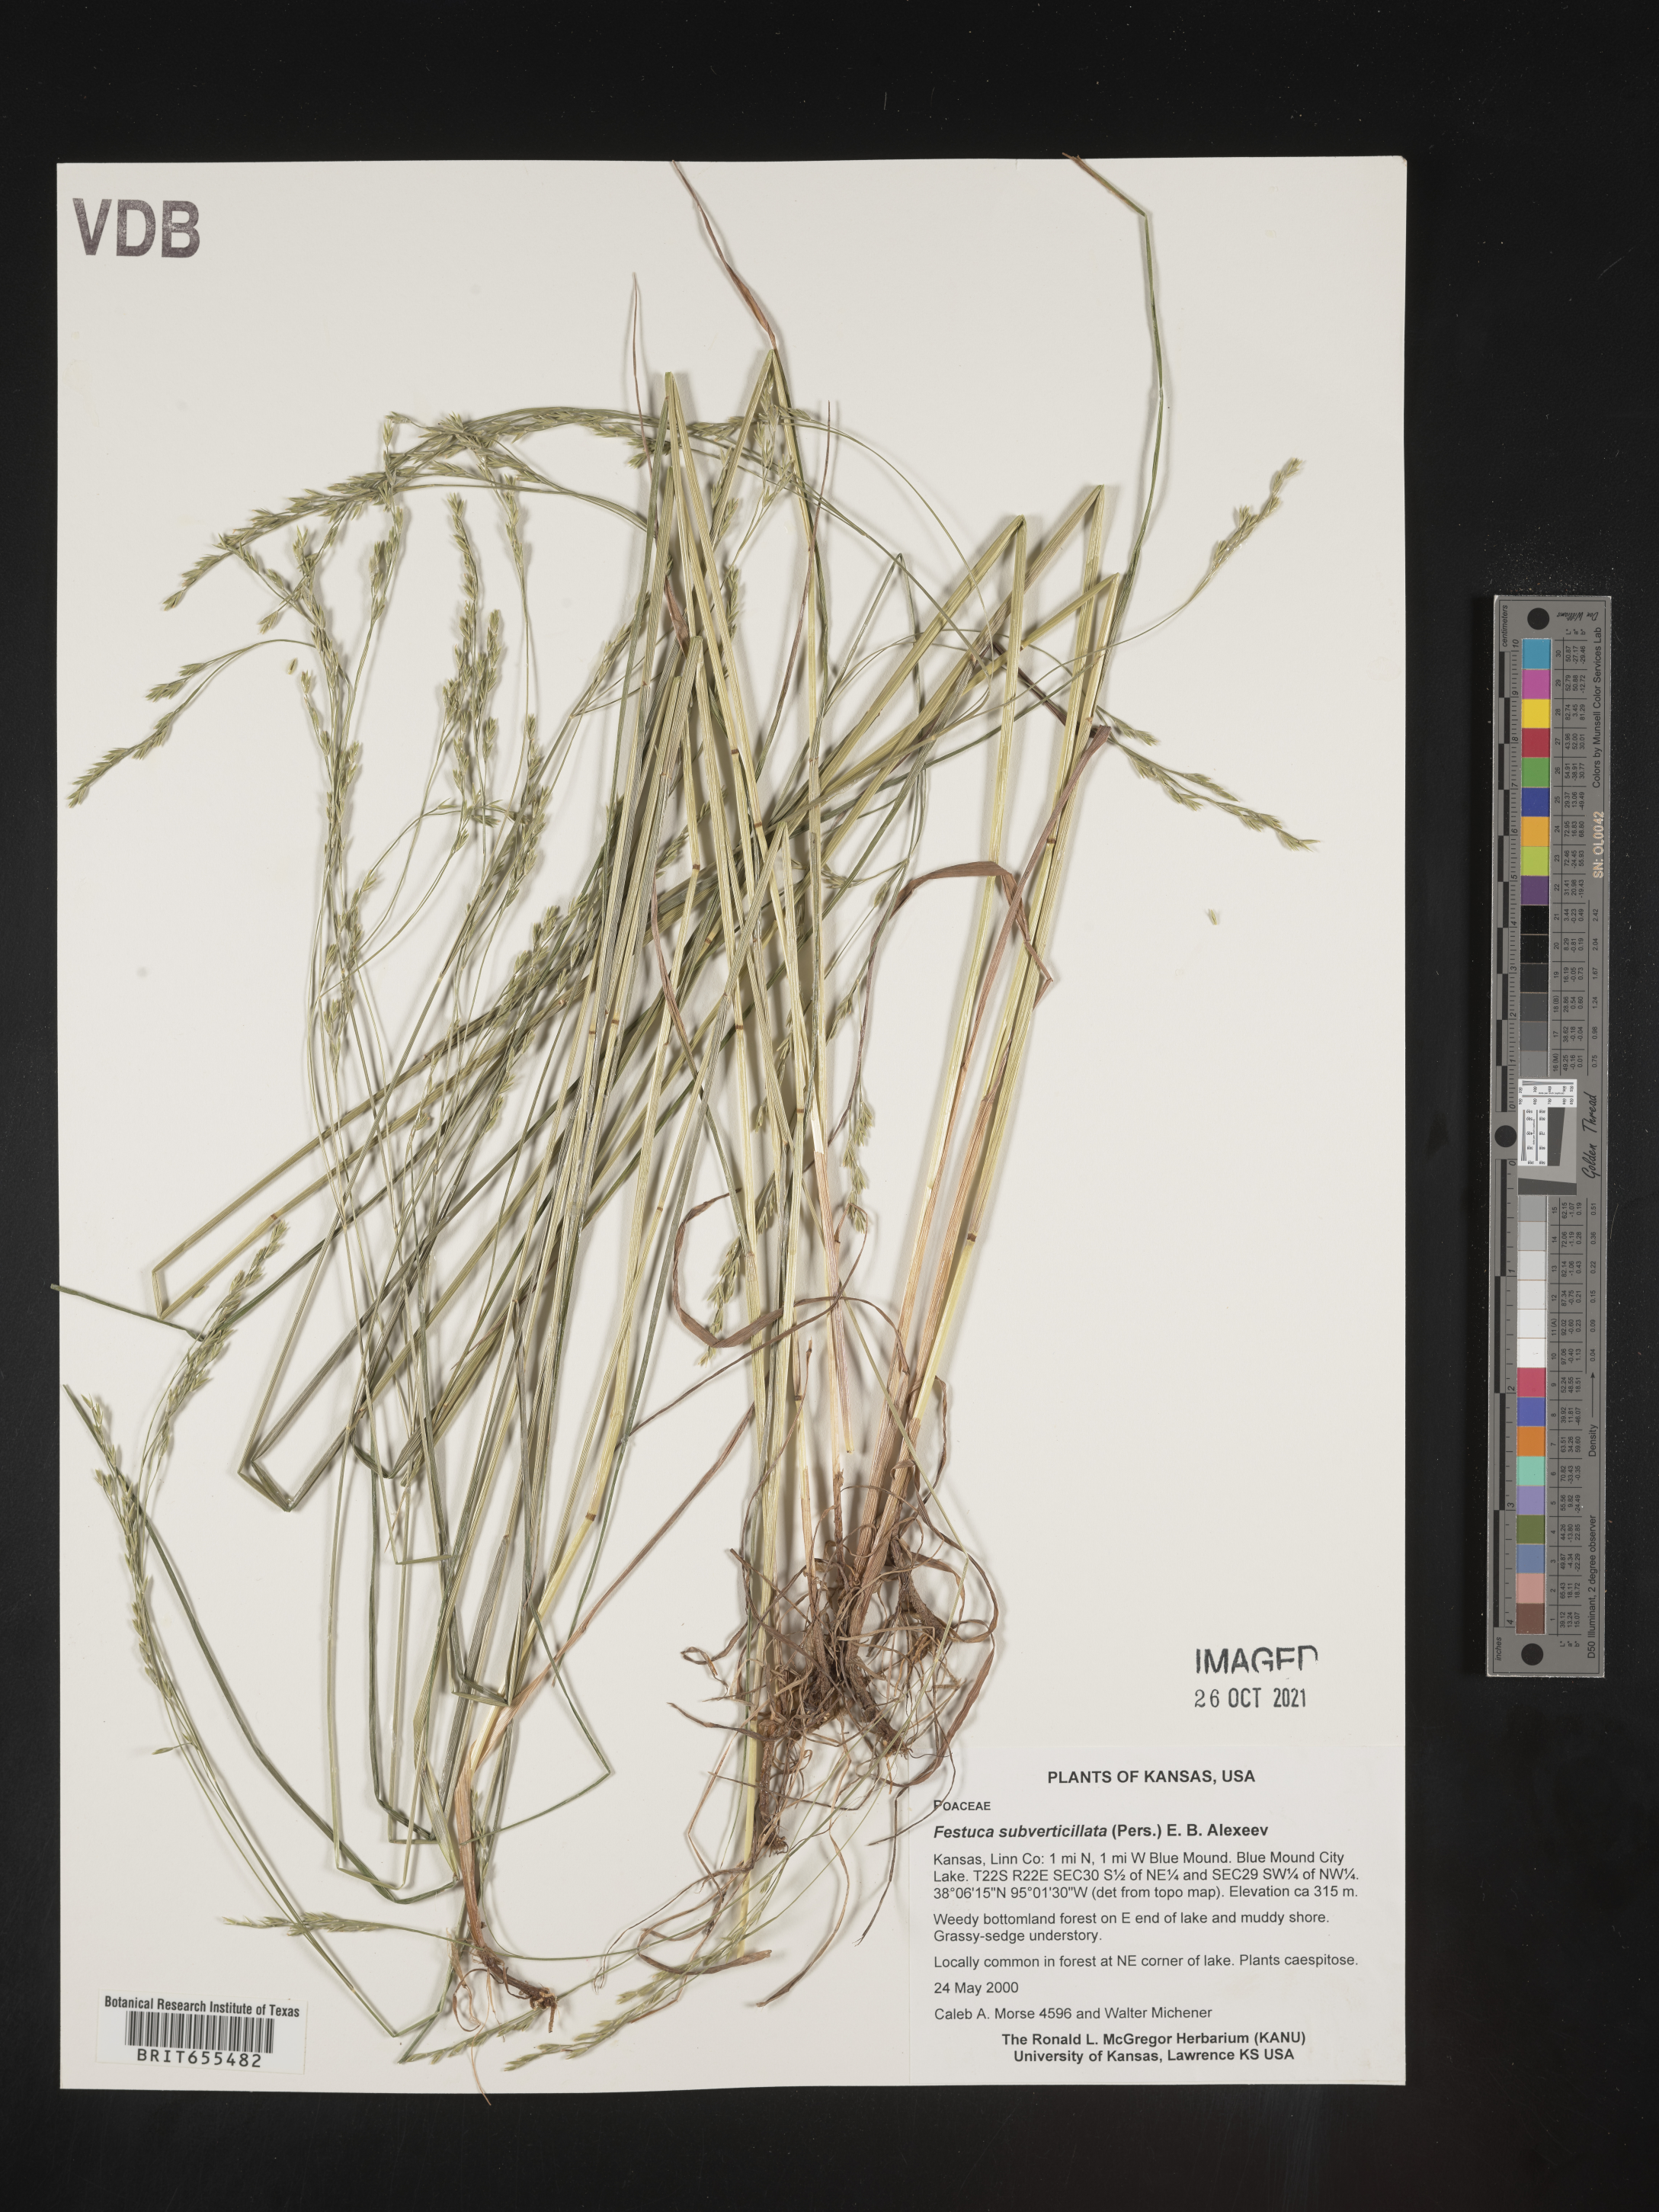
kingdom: Plantae
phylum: Tracheophyta
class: Liliopsida
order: Poales
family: Poaceae
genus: Festuca
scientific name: Festuca
